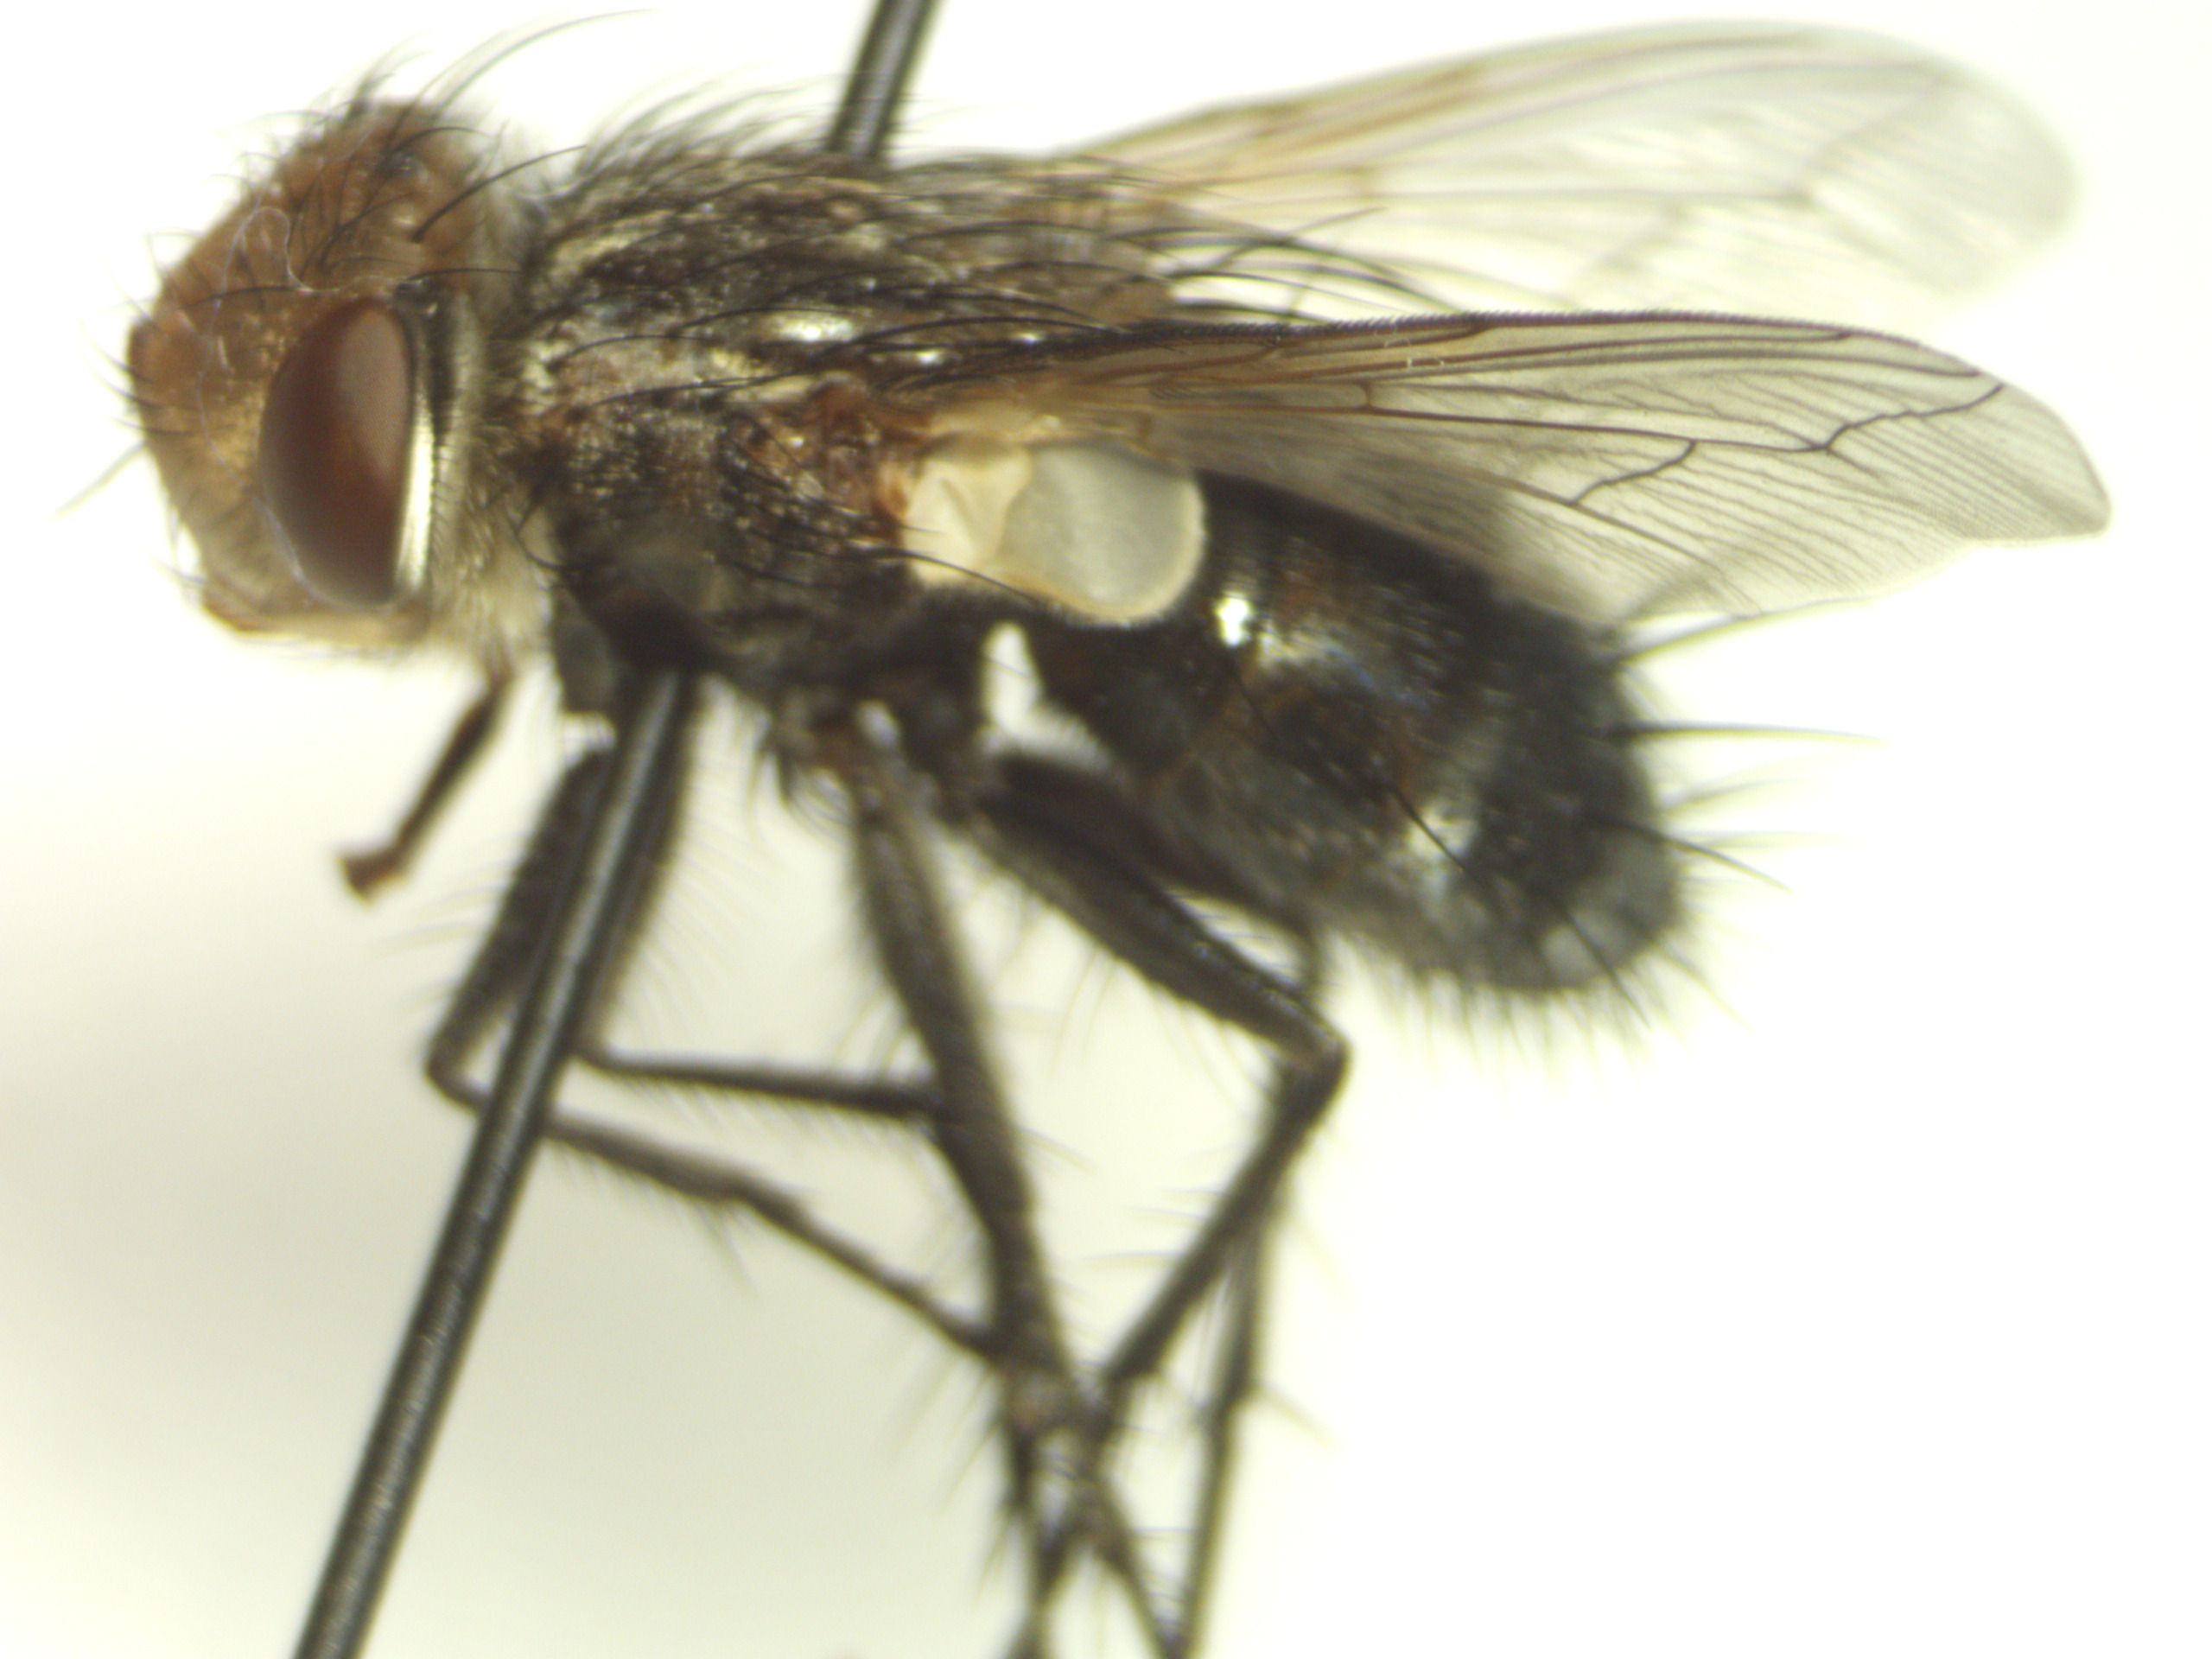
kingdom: Animalia
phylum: Arthropoda
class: Insecta
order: Diptera
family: Tachinidae
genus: Gonia
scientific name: Gonia picea
